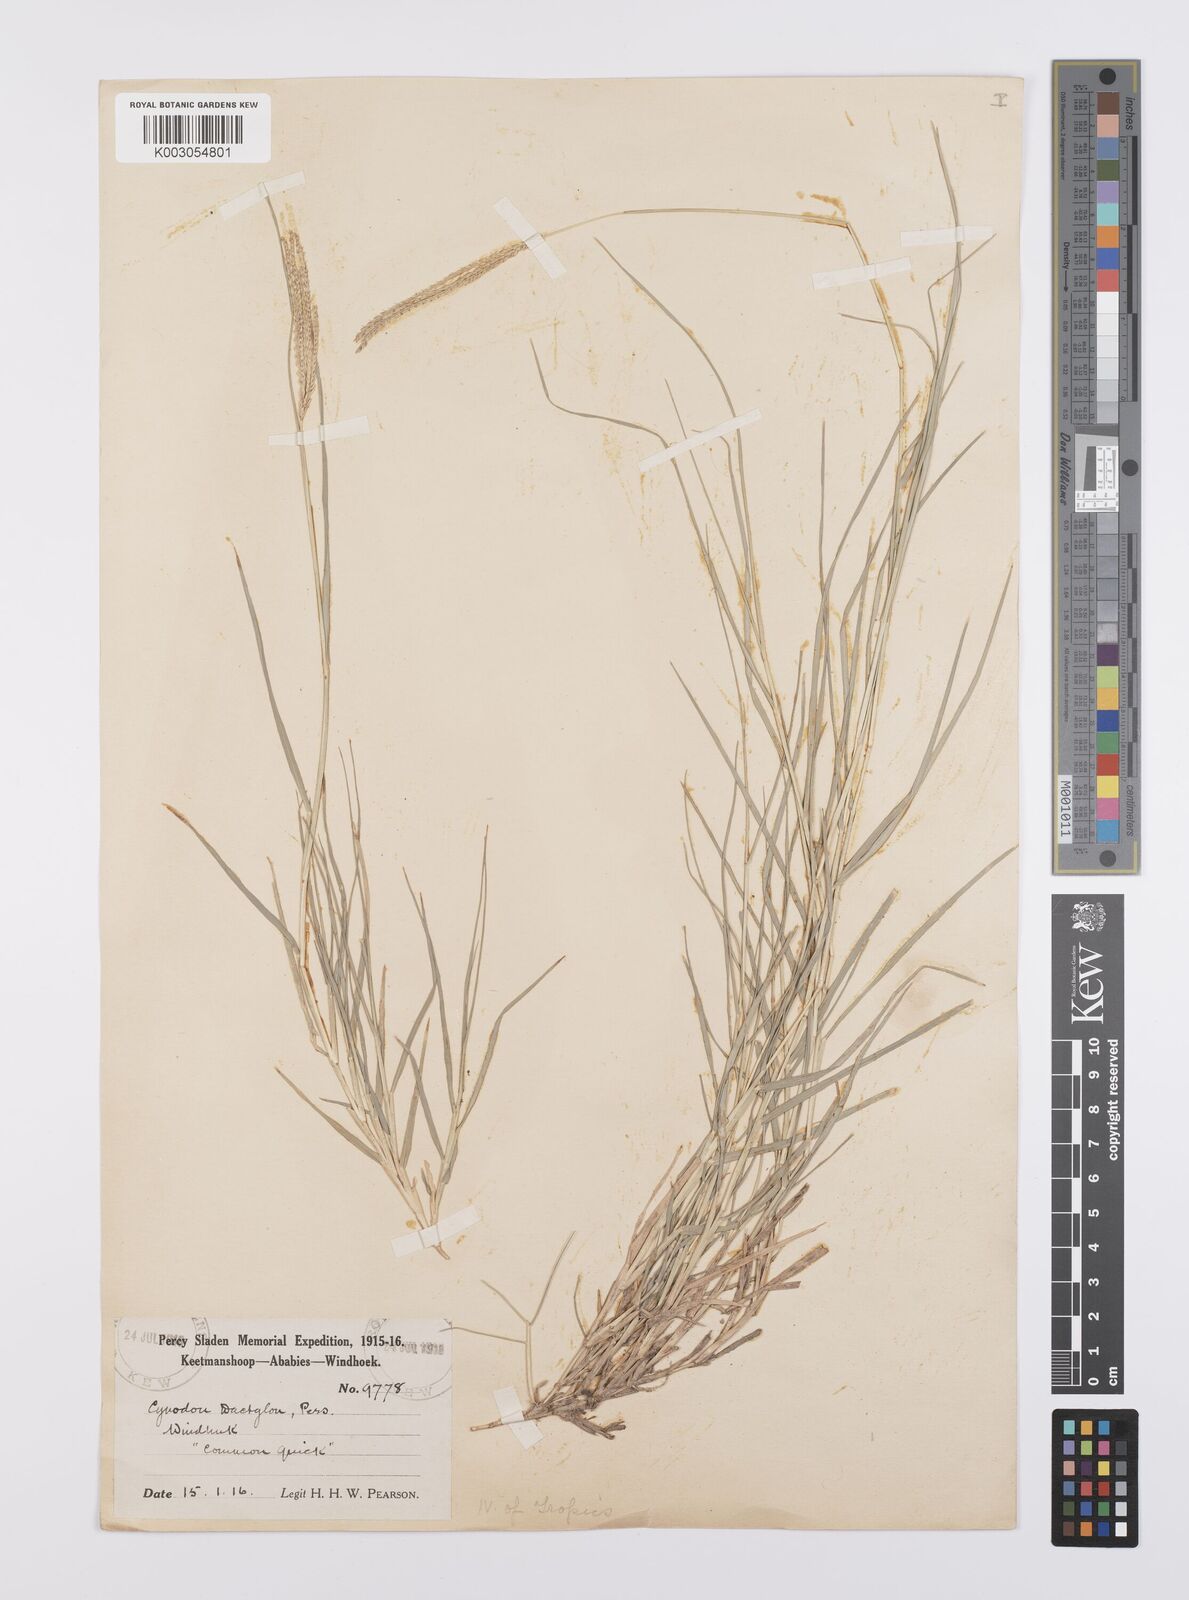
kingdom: Plantae
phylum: Tracheophyta
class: Liliopsida
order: Poales
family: Poaceae
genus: Cynodon
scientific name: Cynodon dactylon
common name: Bermuda grass
